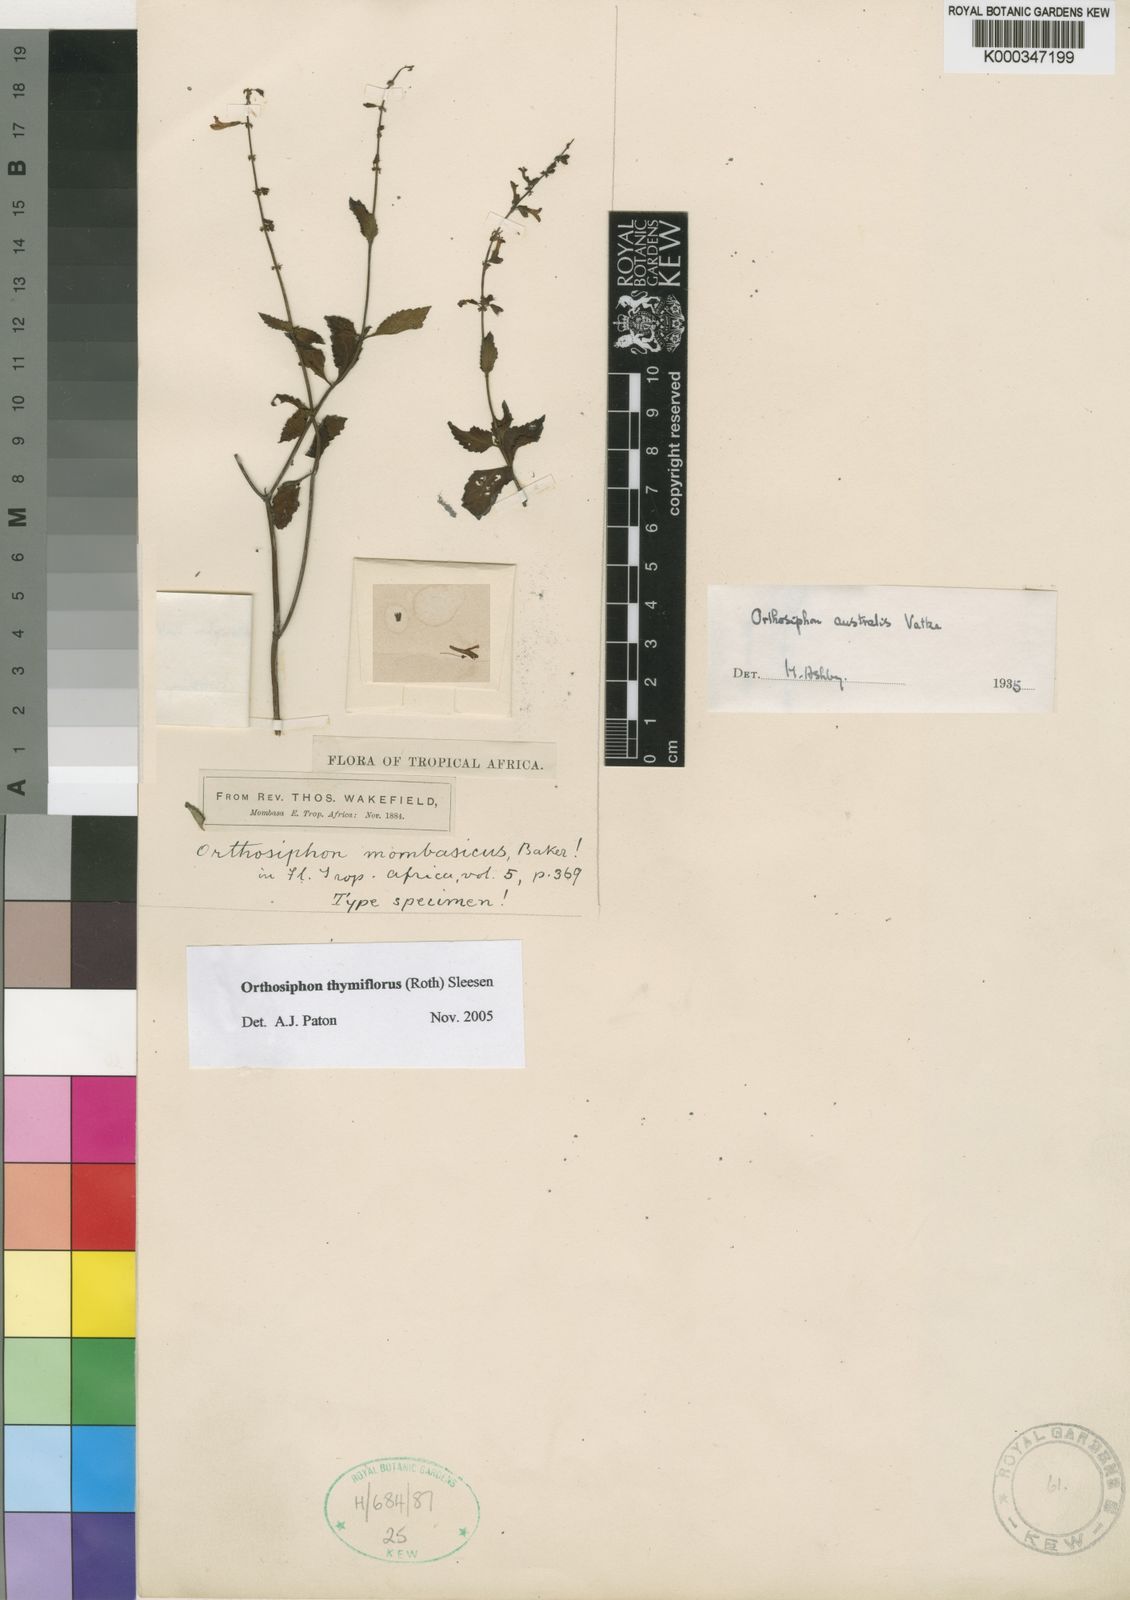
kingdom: Plantae
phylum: Tracheophyta
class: Magnoliopsida
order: Lamiales
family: Lamiaceae
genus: Orthosiphon
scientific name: Orthosiphon thymiflorus
